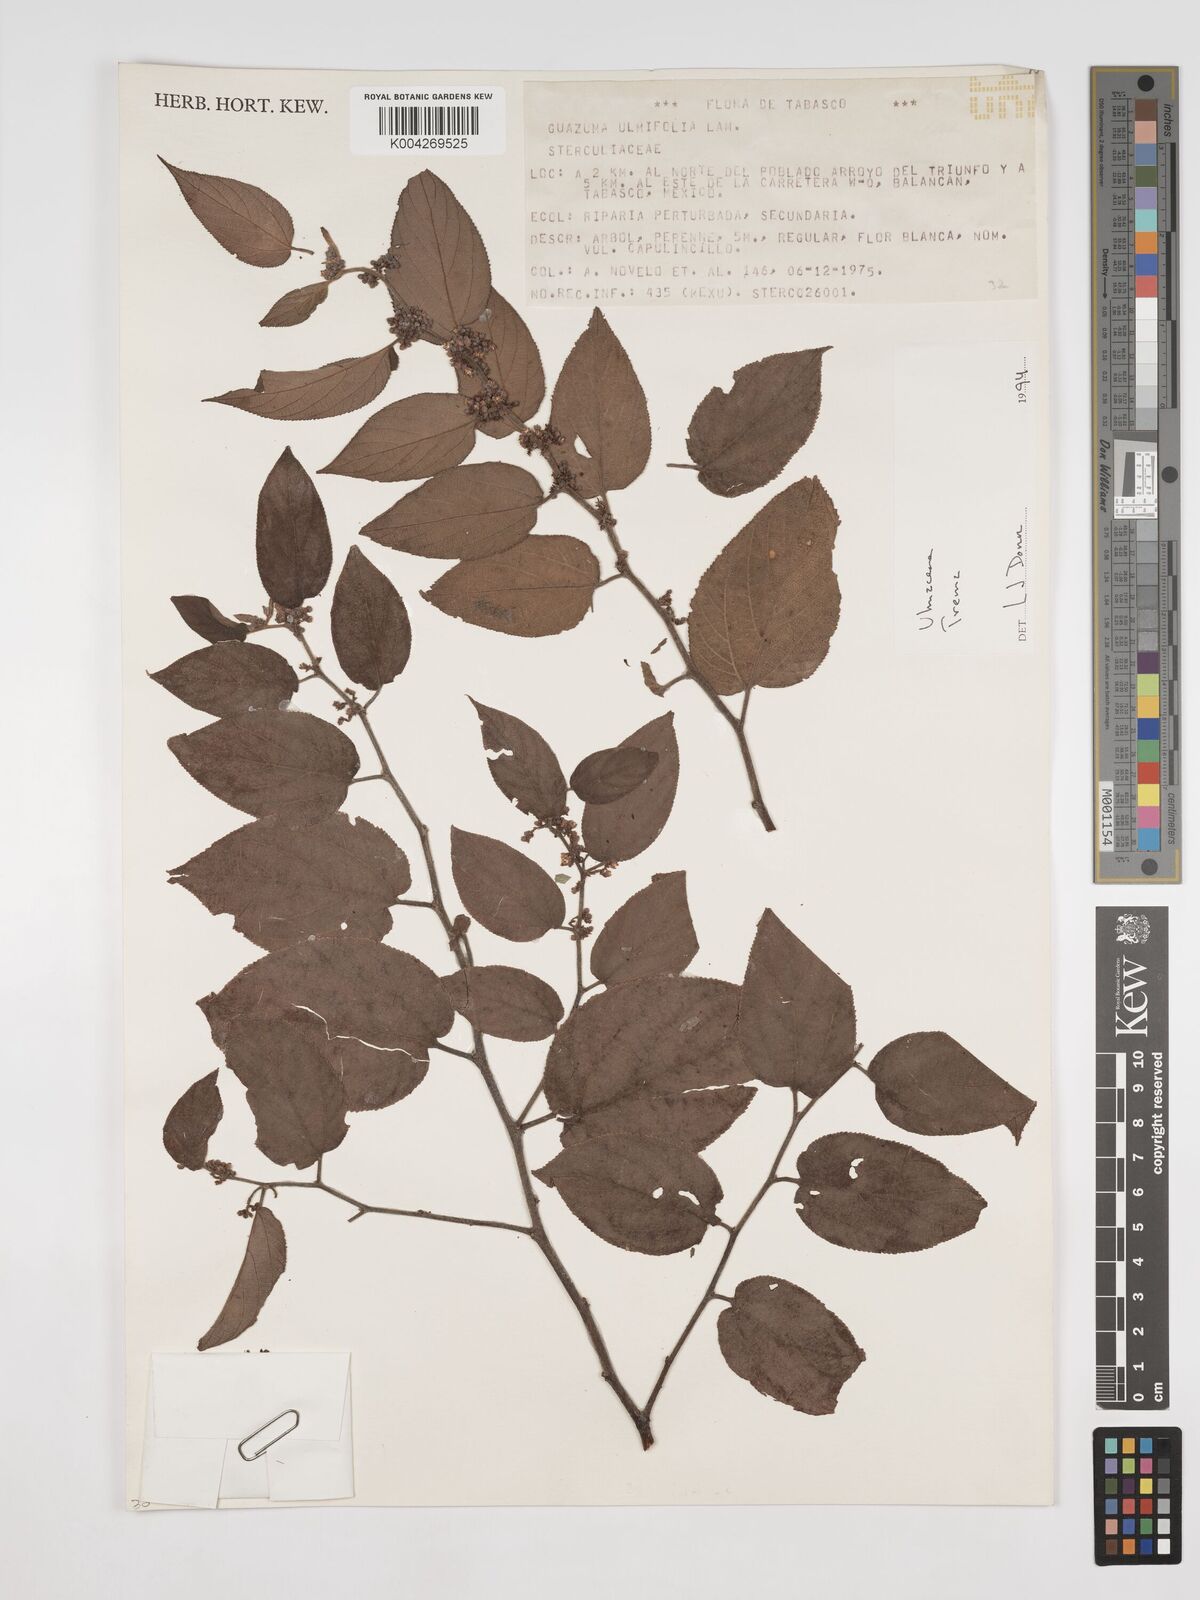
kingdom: Plantae
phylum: Tracheophyta
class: Magnoliopsida
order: Rosales
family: Cannabaceae
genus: Trema
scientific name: Trema
